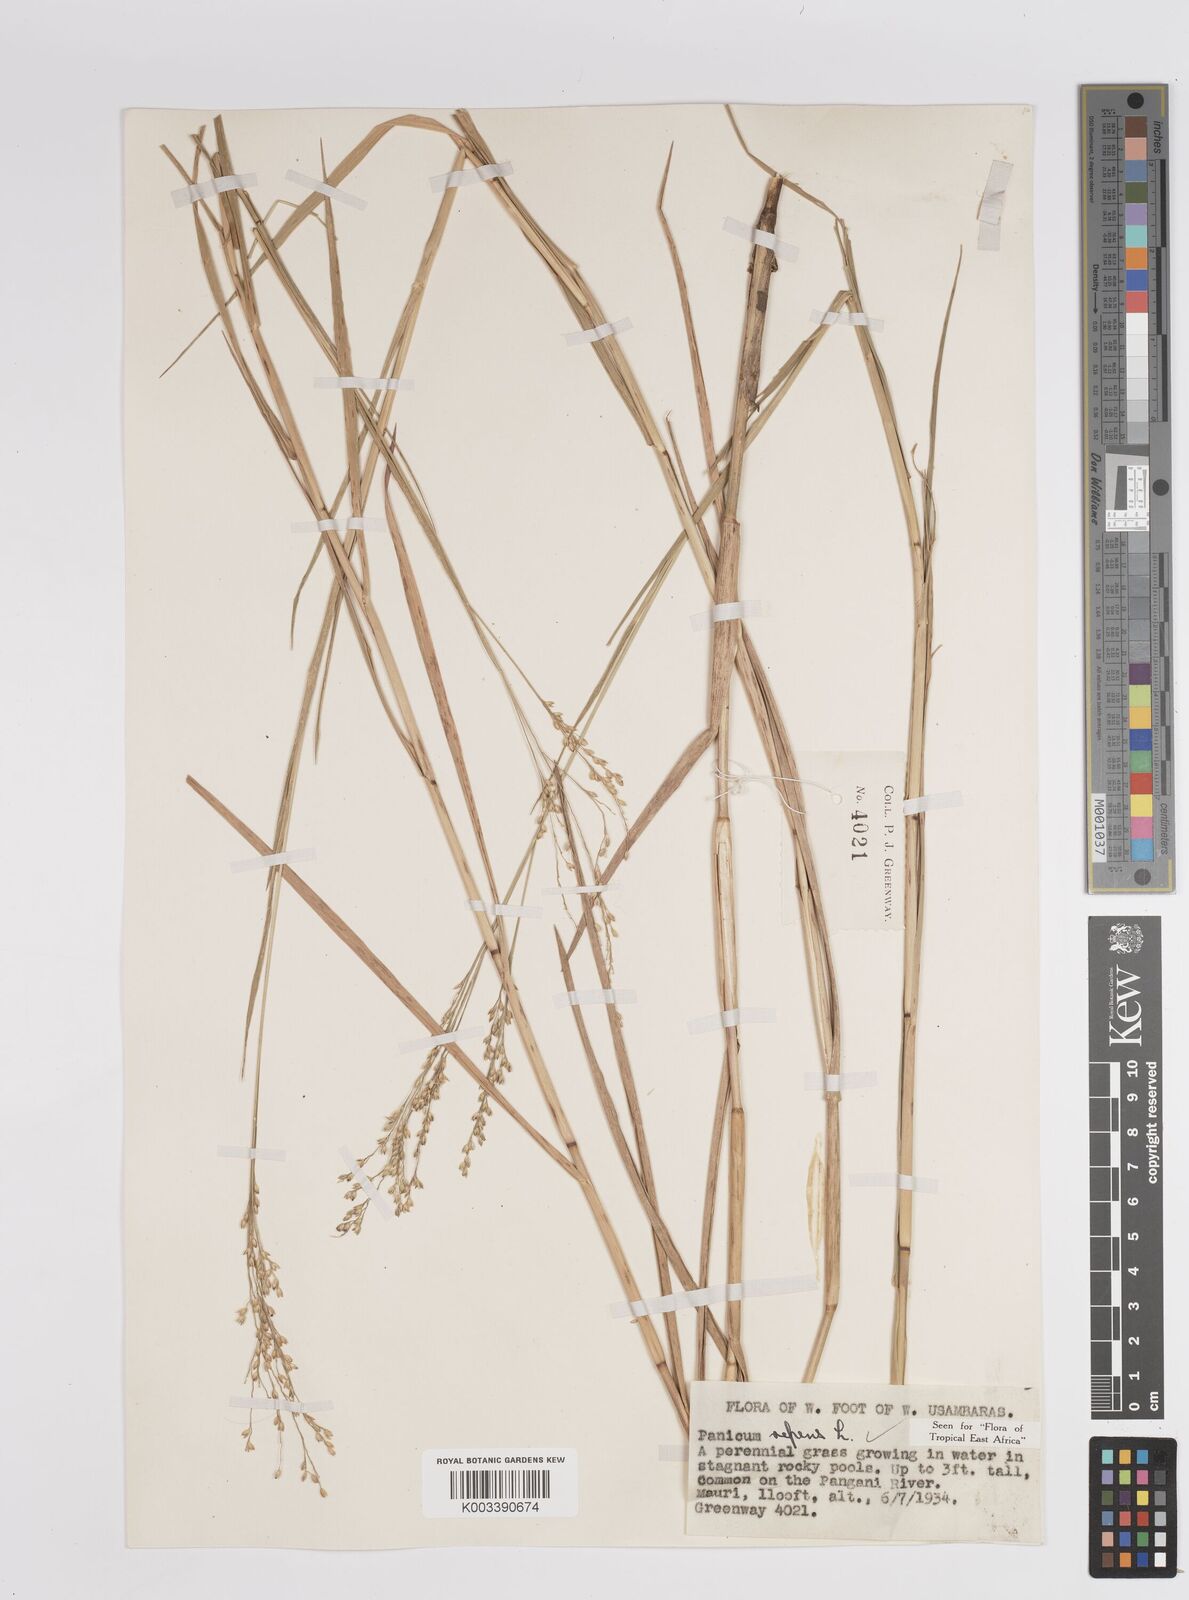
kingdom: Plantae
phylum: Tracheophyta
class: Liliopsida
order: Poales
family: Poaceae
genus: Panicum
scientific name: Panicum repens
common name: Torpedo grass
